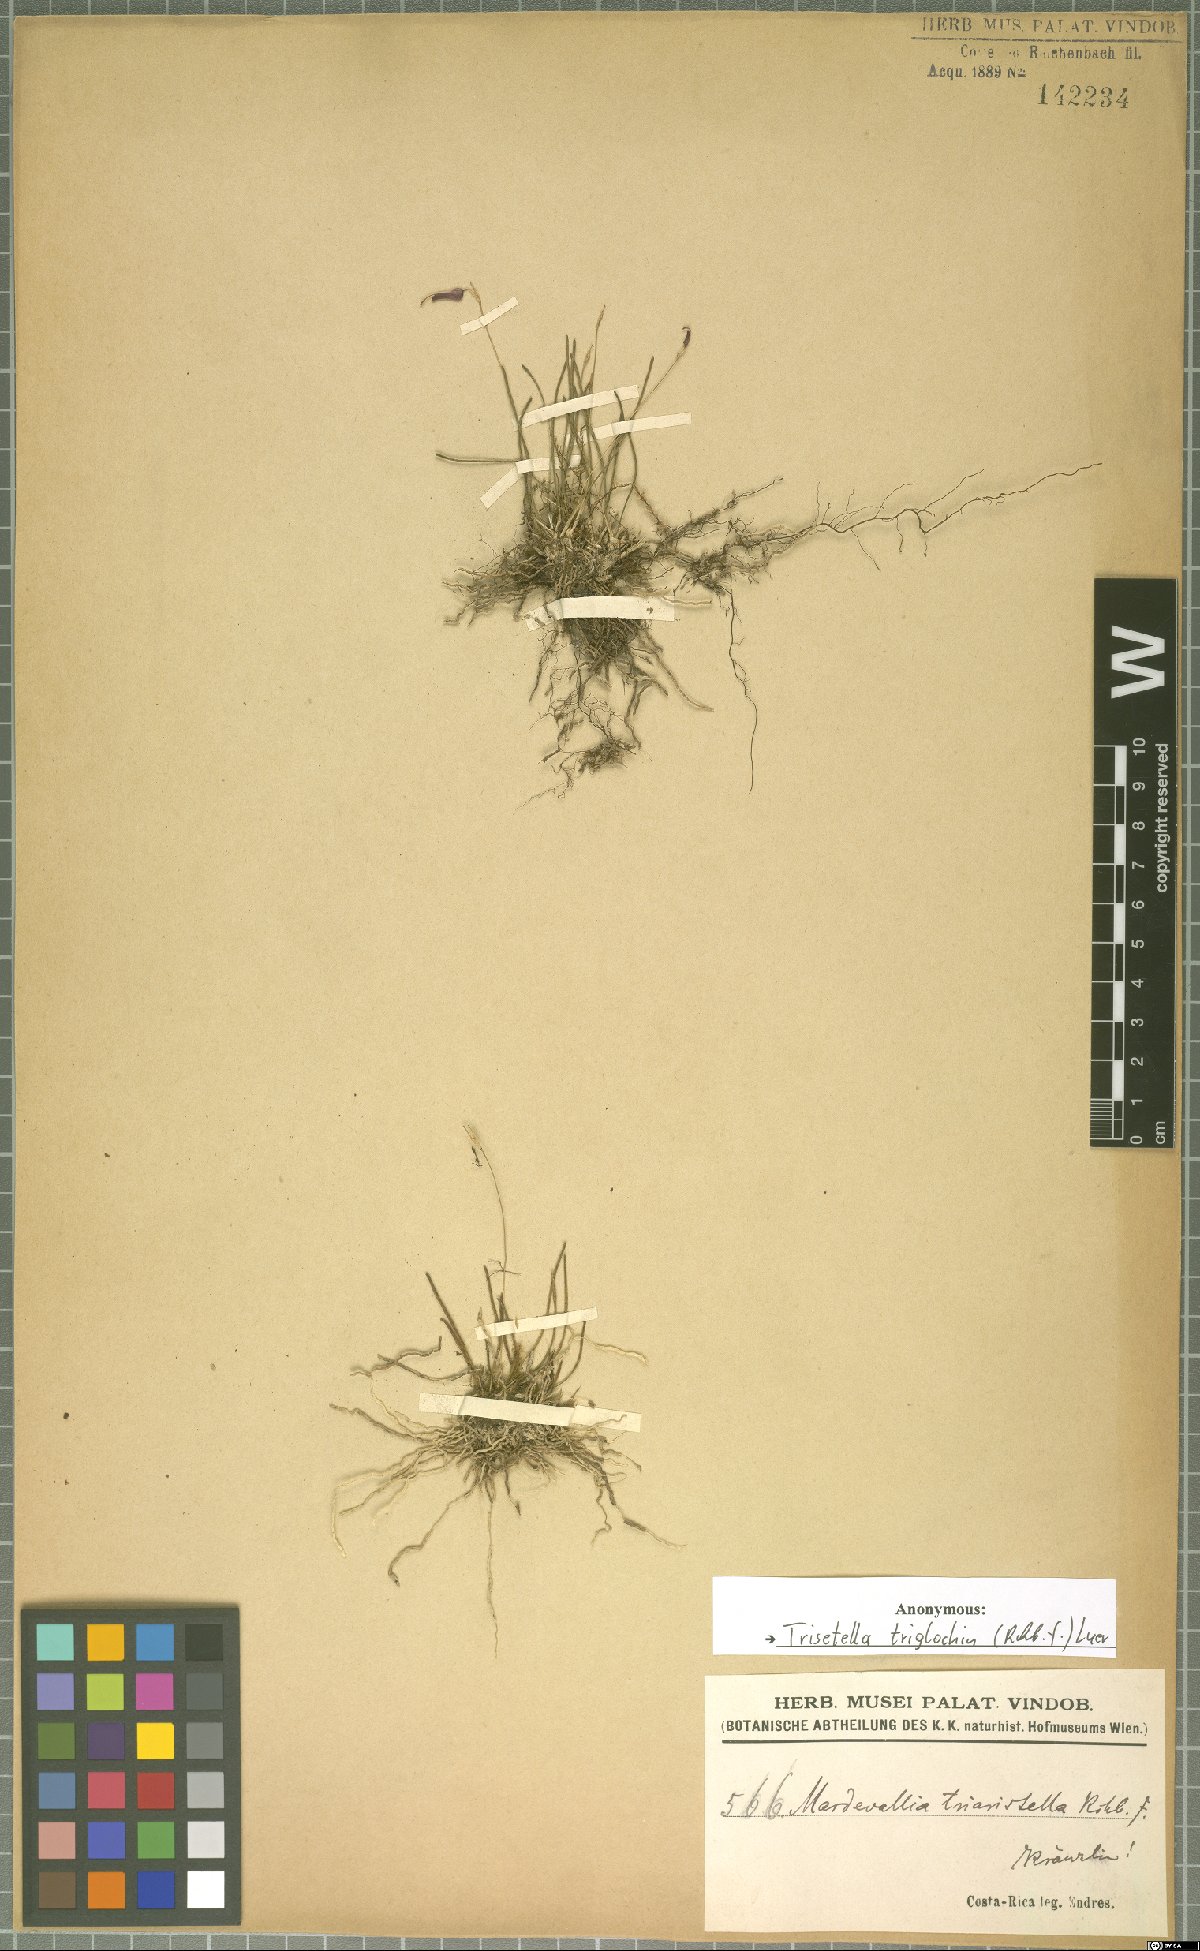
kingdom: Plantae
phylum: Tracheophyta
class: Liliopsida
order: Asparagales
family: Orchidaceae
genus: Trisetella
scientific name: Trisetella triglochin
